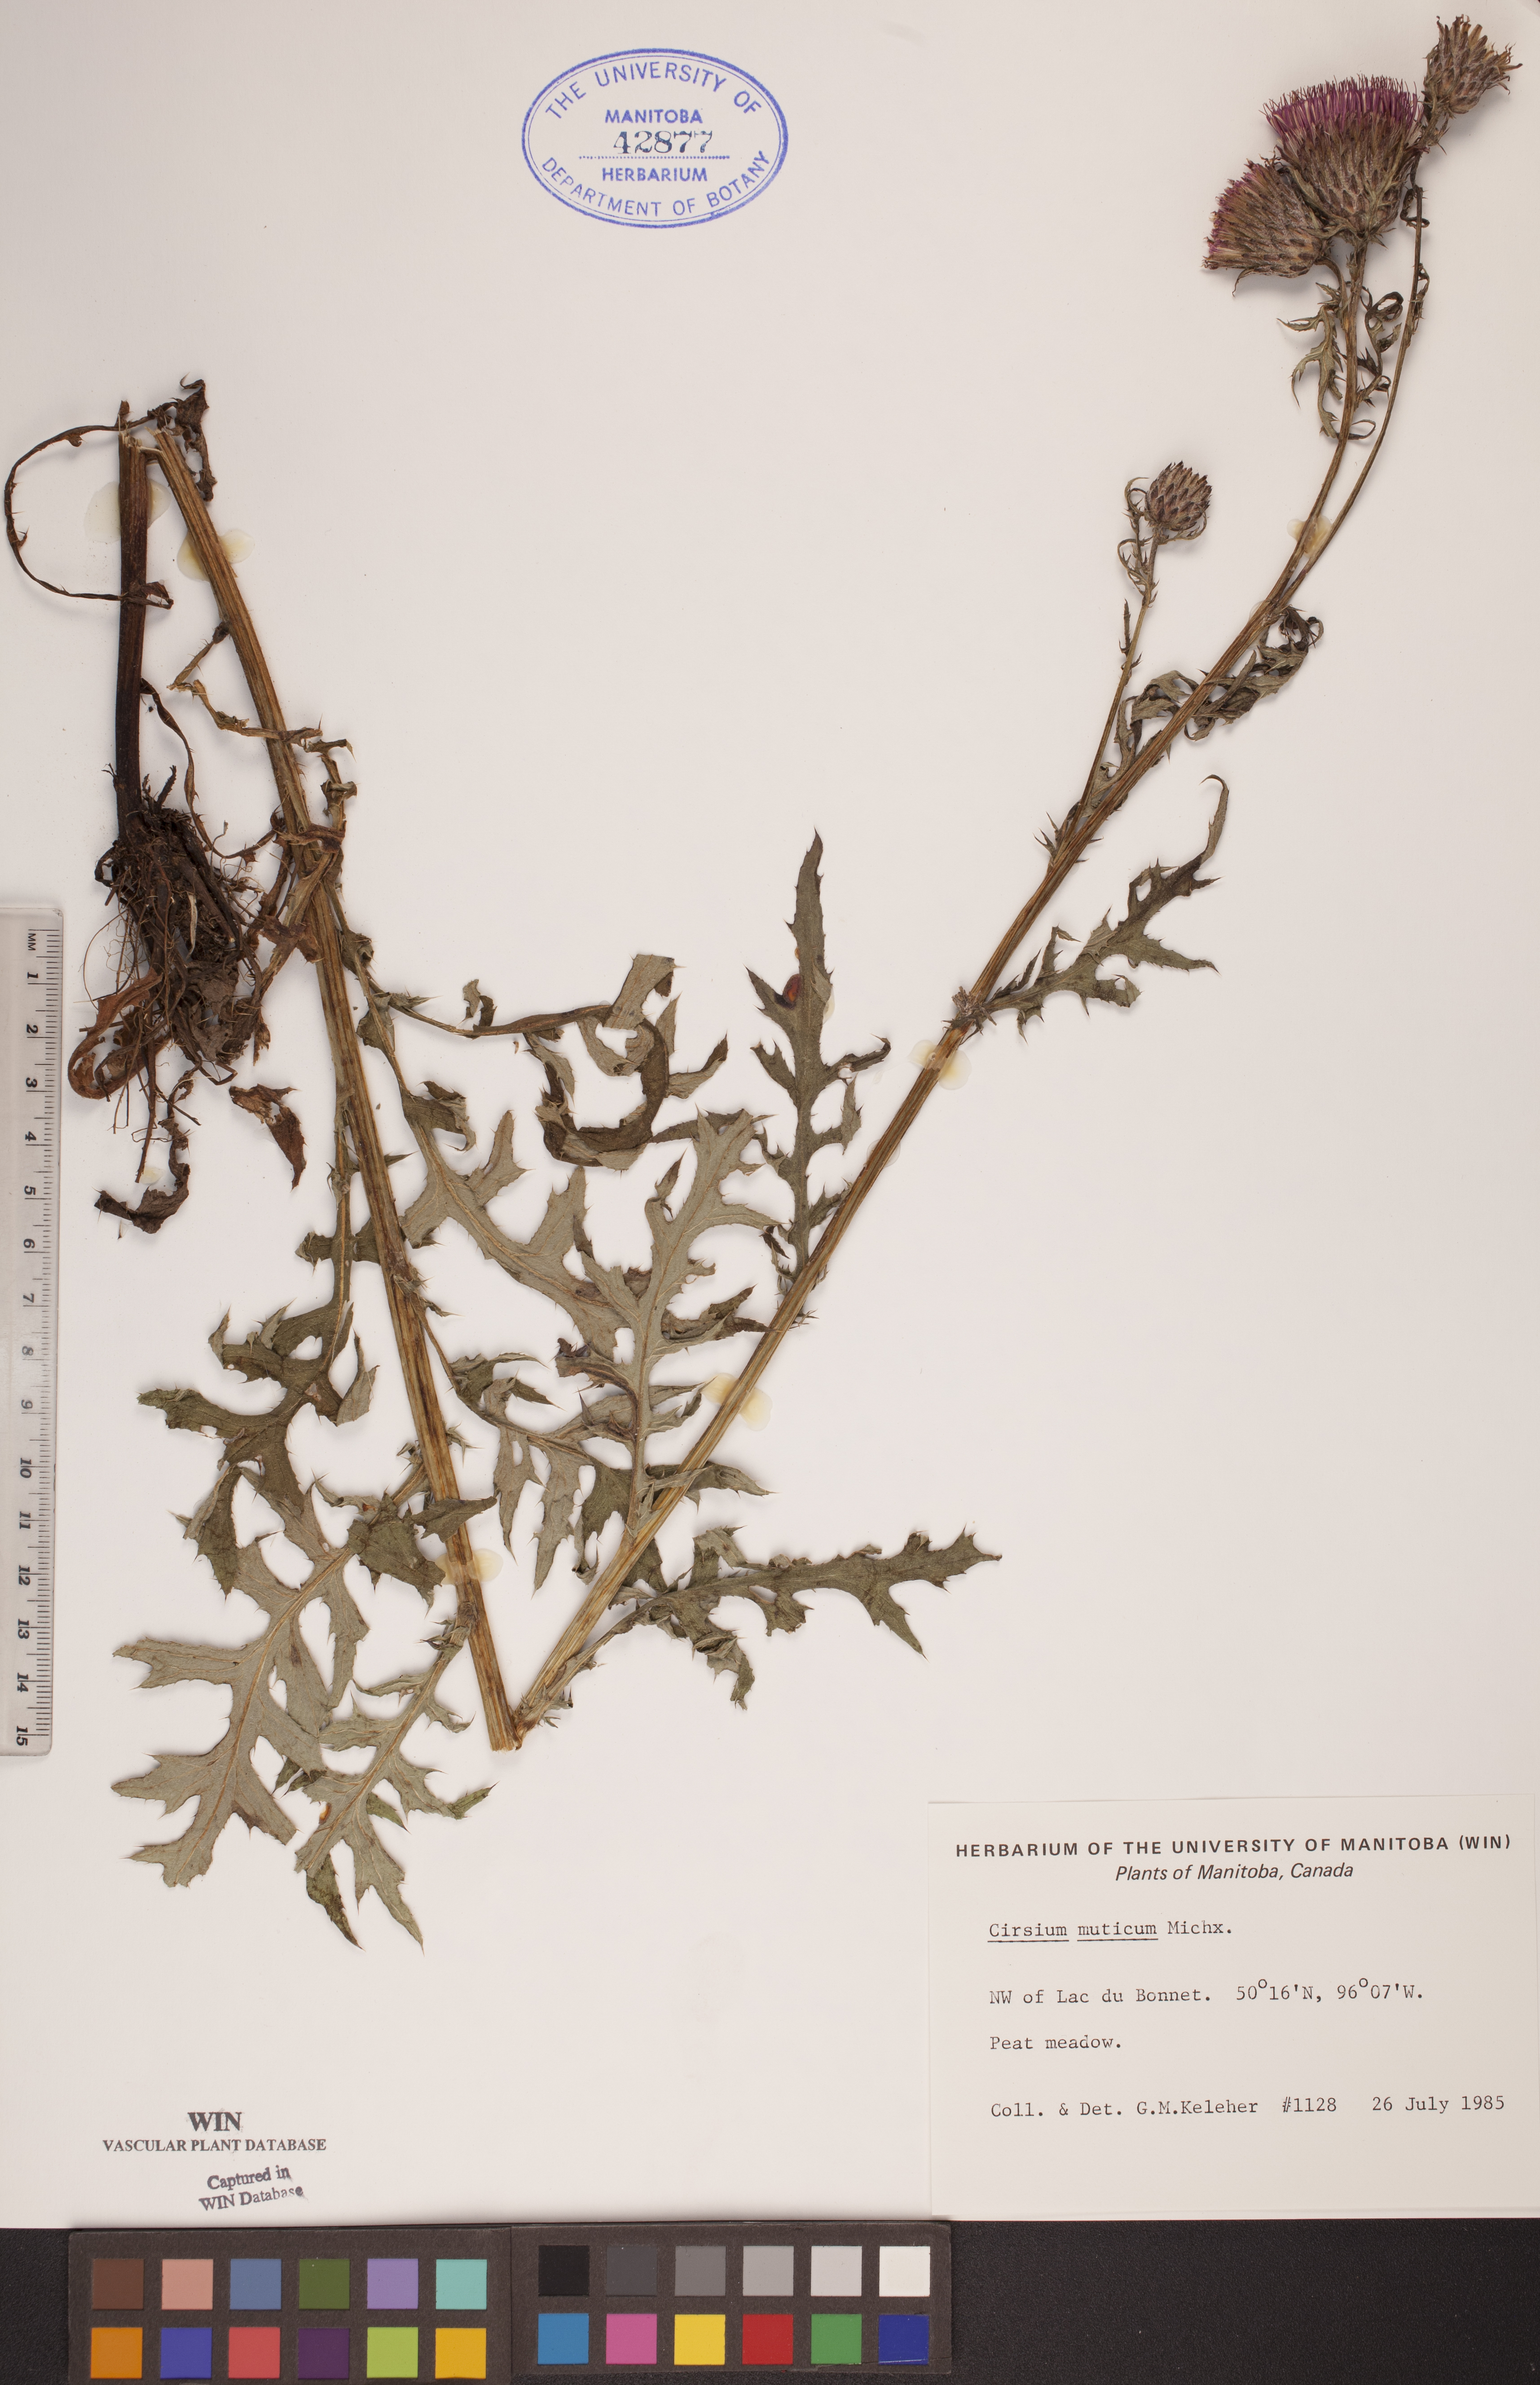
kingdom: Plantae
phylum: Tracheophyta
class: Magnoliopsida
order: Asterales
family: Asteraceae
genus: Cirsium
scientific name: Cirsium muticum
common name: Dunce-nettle
